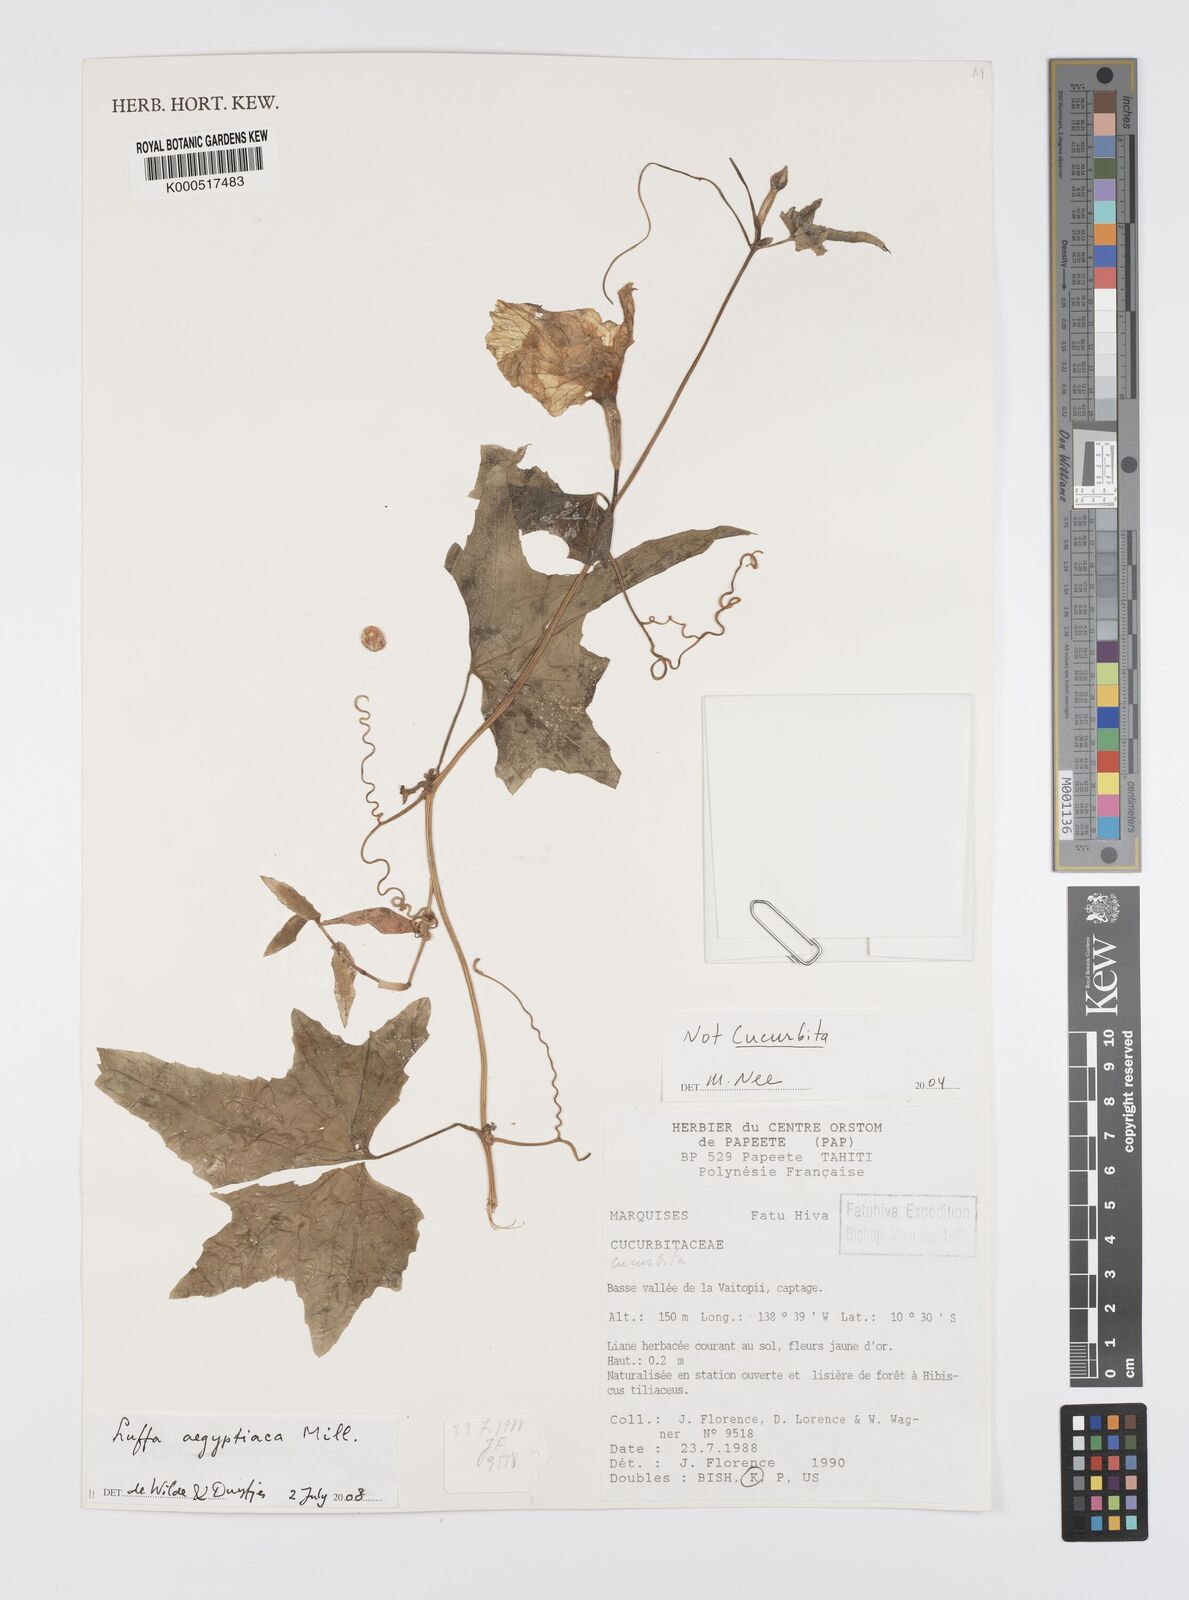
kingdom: Plantae
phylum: Tracheophyta
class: Magnoliopsida
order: Cucurbitales
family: Cucurbitaceae
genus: Luffa
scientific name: Luffa aegyptiaca
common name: Sponge gourd
